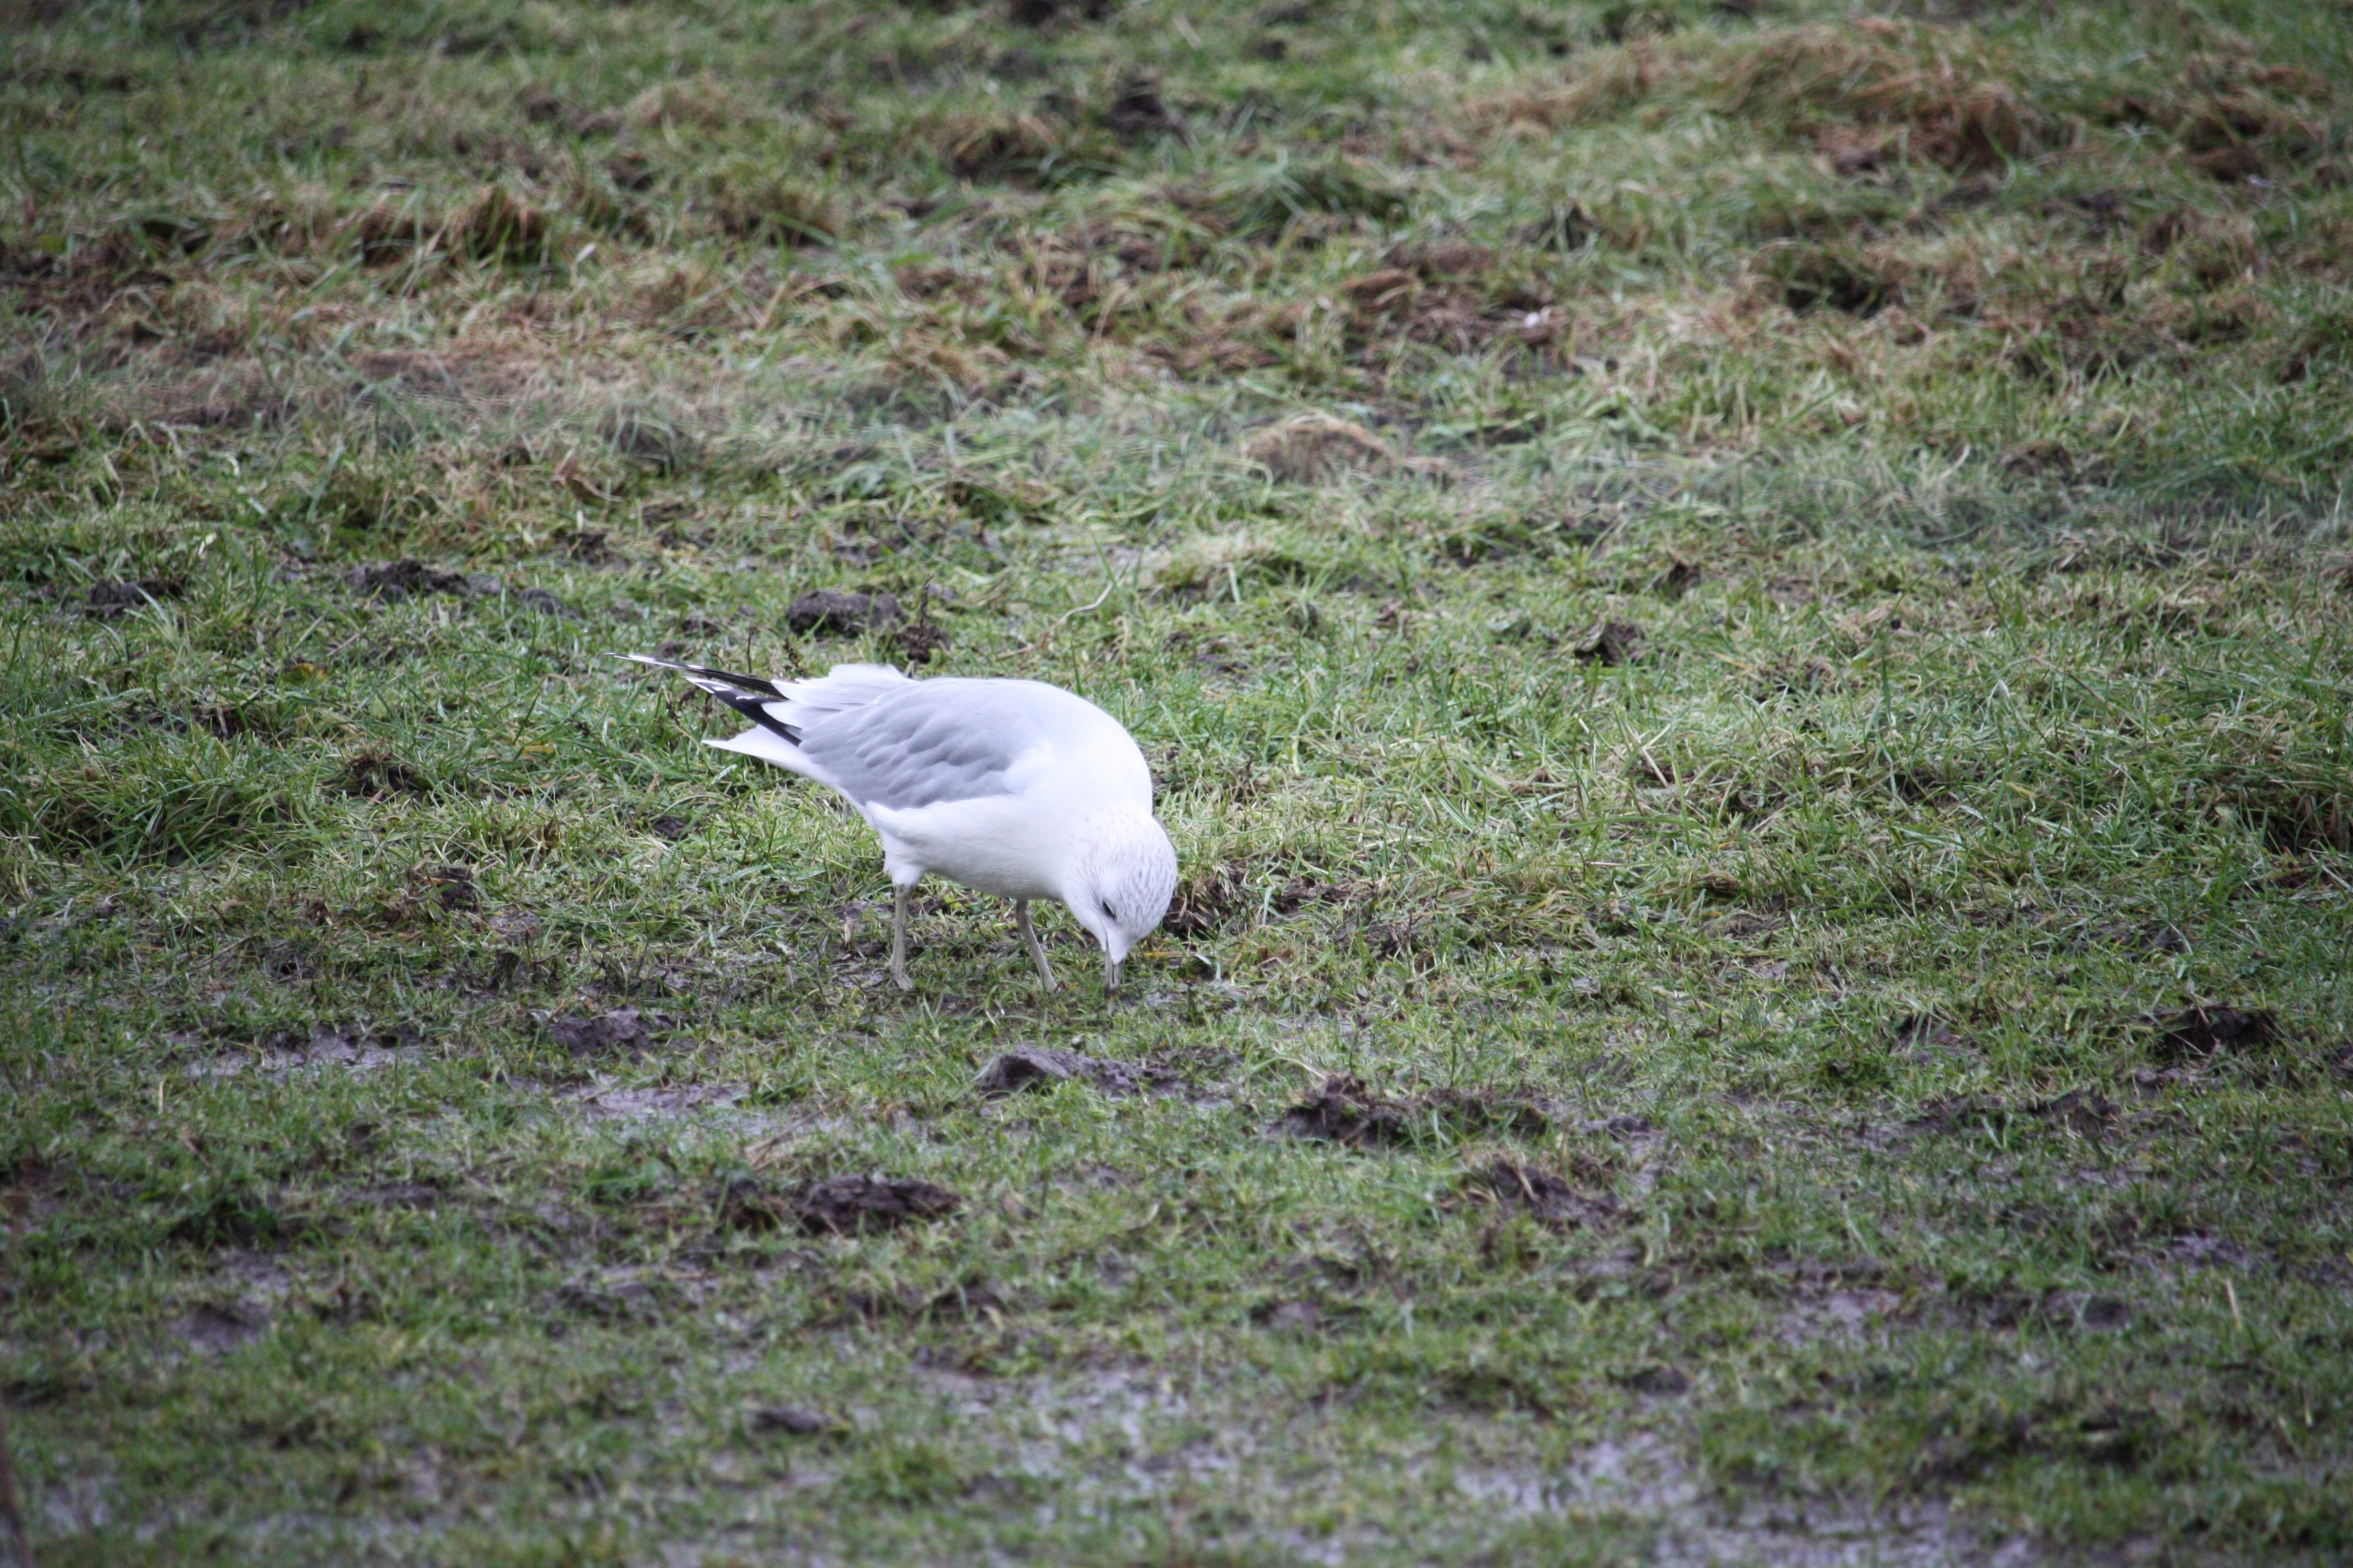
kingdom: Animalia
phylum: Chordata
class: Aves
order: Charadriiformes
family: Laridae
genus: Larus
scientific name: Larus canus
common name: Stormmåge
